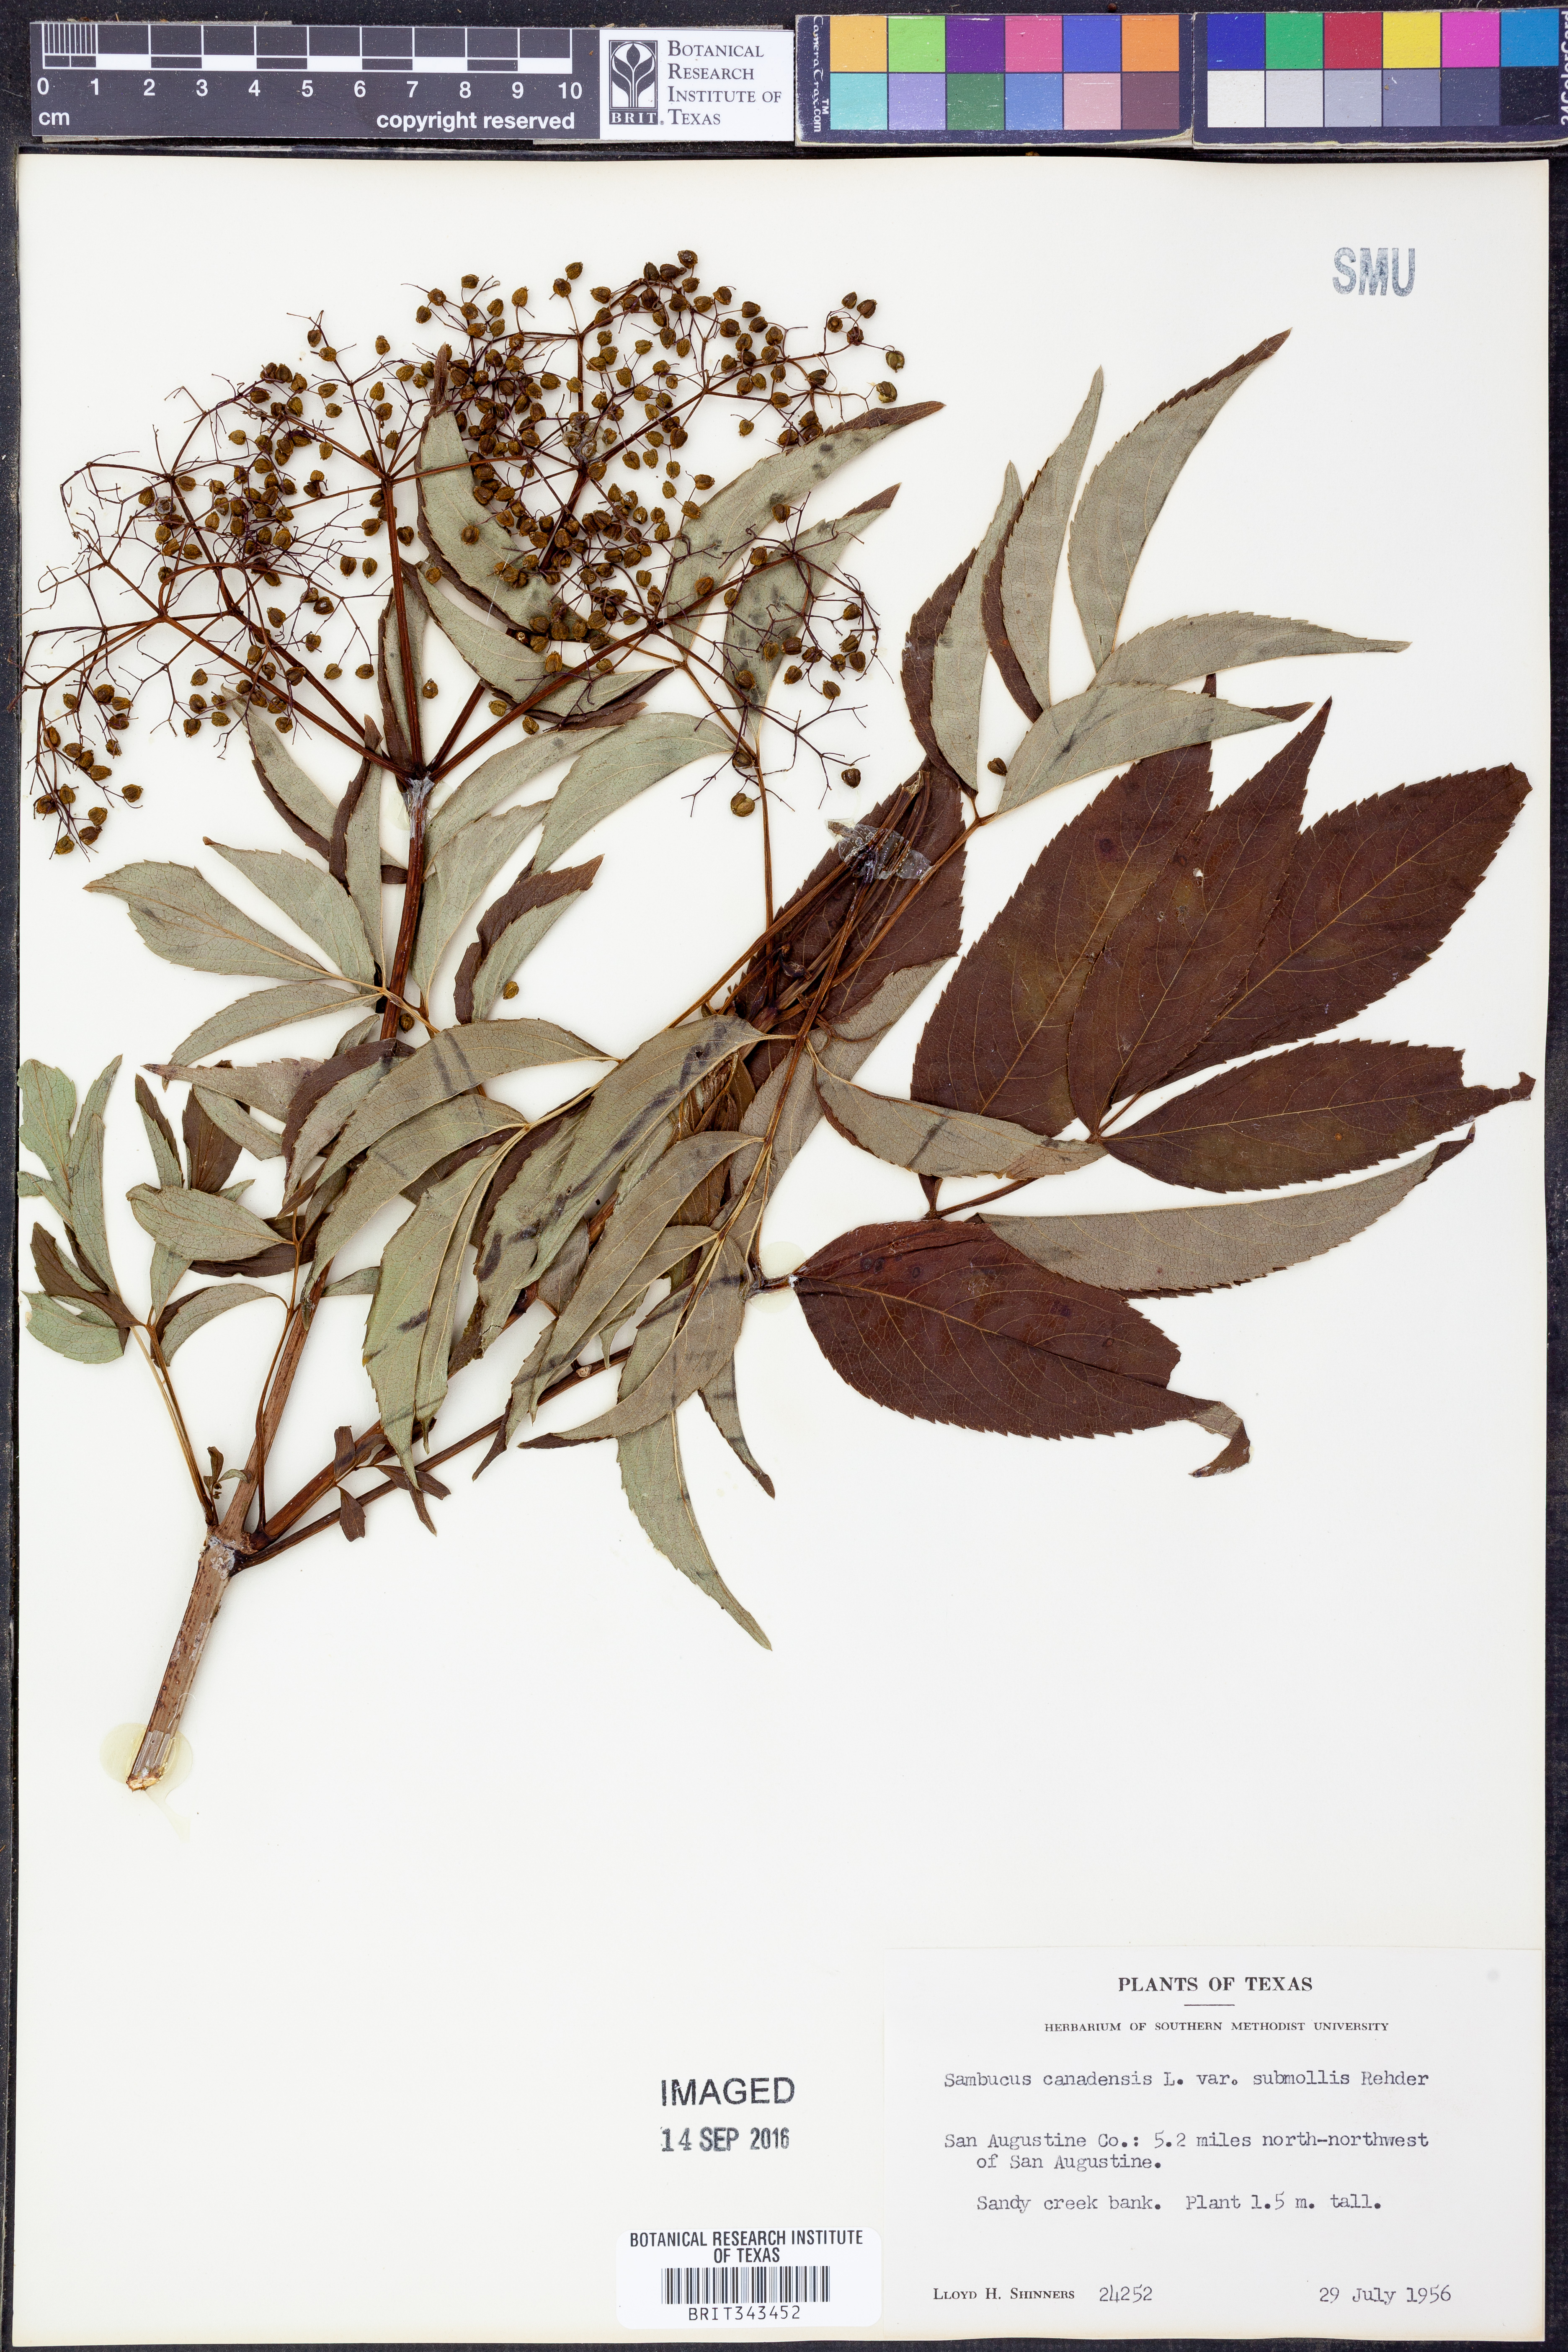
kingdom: Plantae
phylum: Tracheophyta
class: Magnoliopsida
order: Dipsacales
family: Viburnaceae
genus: Sambucus
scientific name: Sambucus canadensis
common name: American elder
